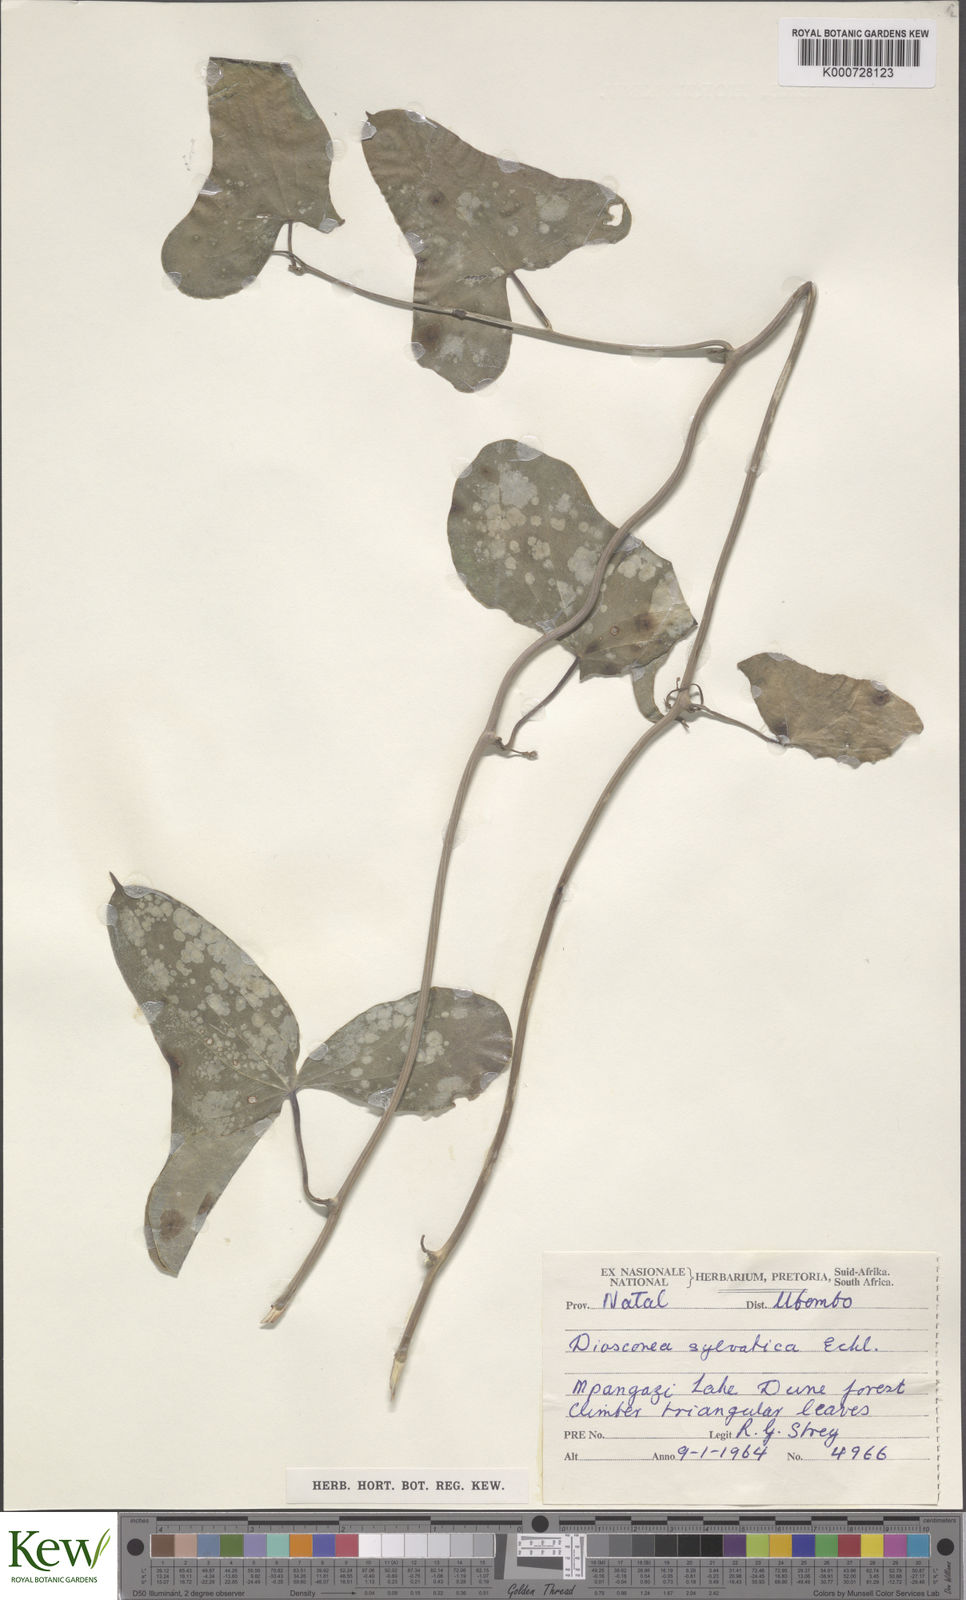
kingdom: Plantae
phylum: Tracheophyta
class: Liliopsida
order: Dioscoreales
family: Dioscoreaceae
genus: Dioscorea
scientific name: Dioscorea sylvatica
